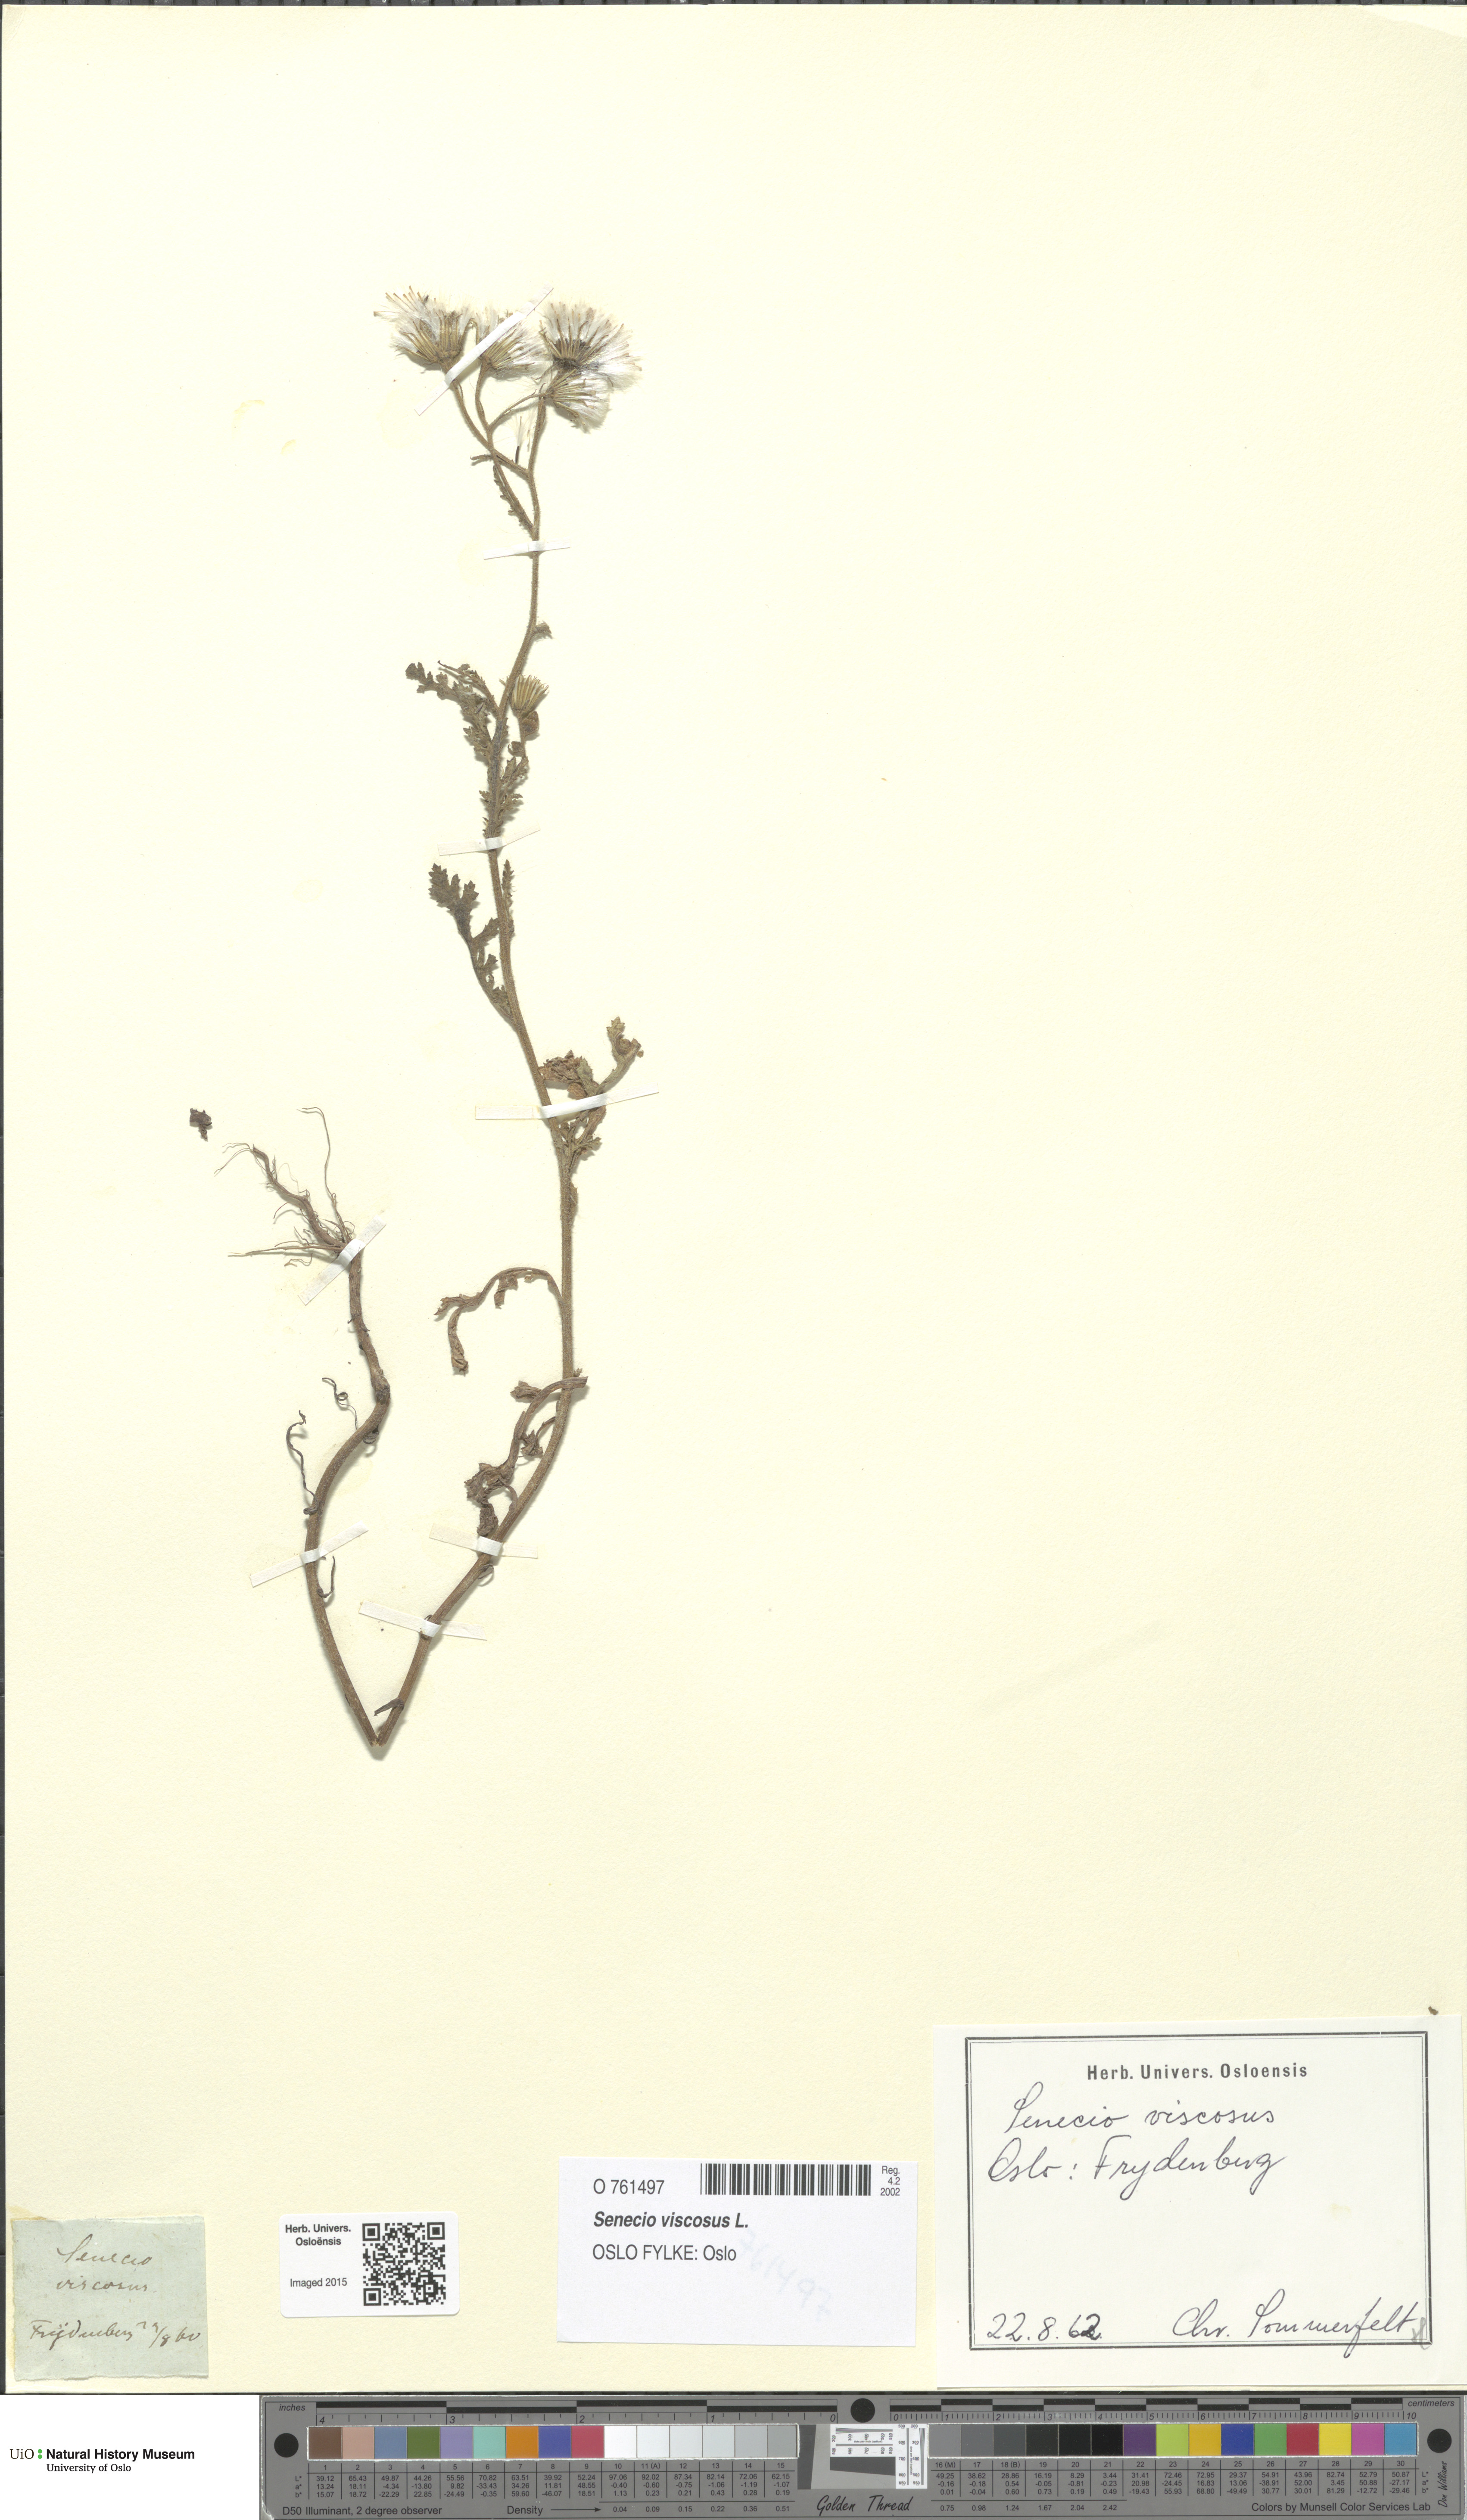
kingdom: Plantae
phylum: Tracheophyta
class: Magnoliopsida
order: Asterales
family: Asteraceae
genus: Senecio
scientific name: Senecio viscosus
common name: Sticky groundsel
